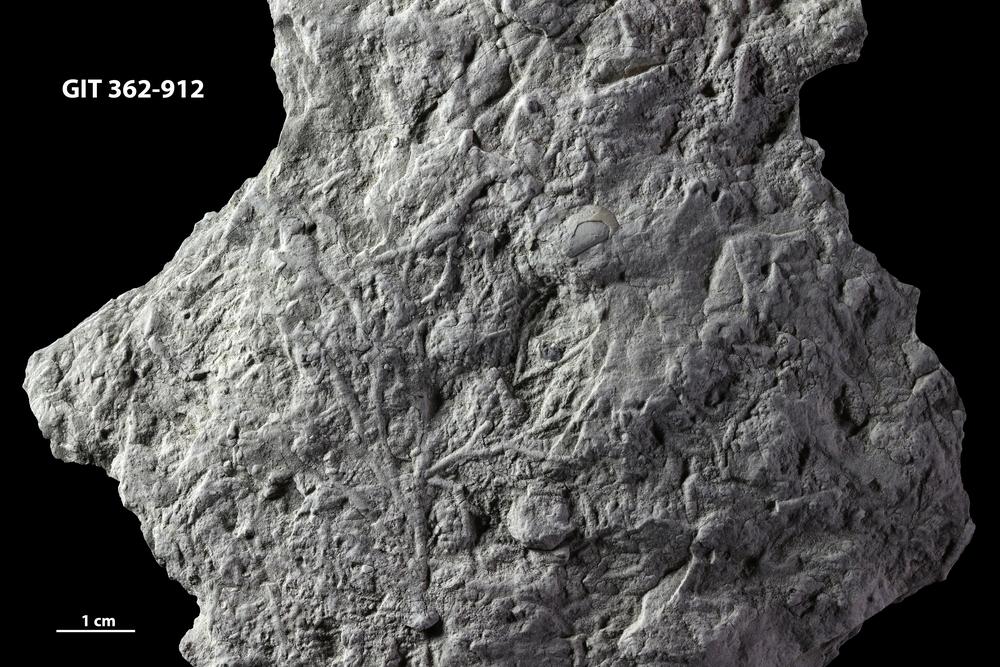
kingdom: Animalia
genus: Chondrites
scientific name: Chondrites
